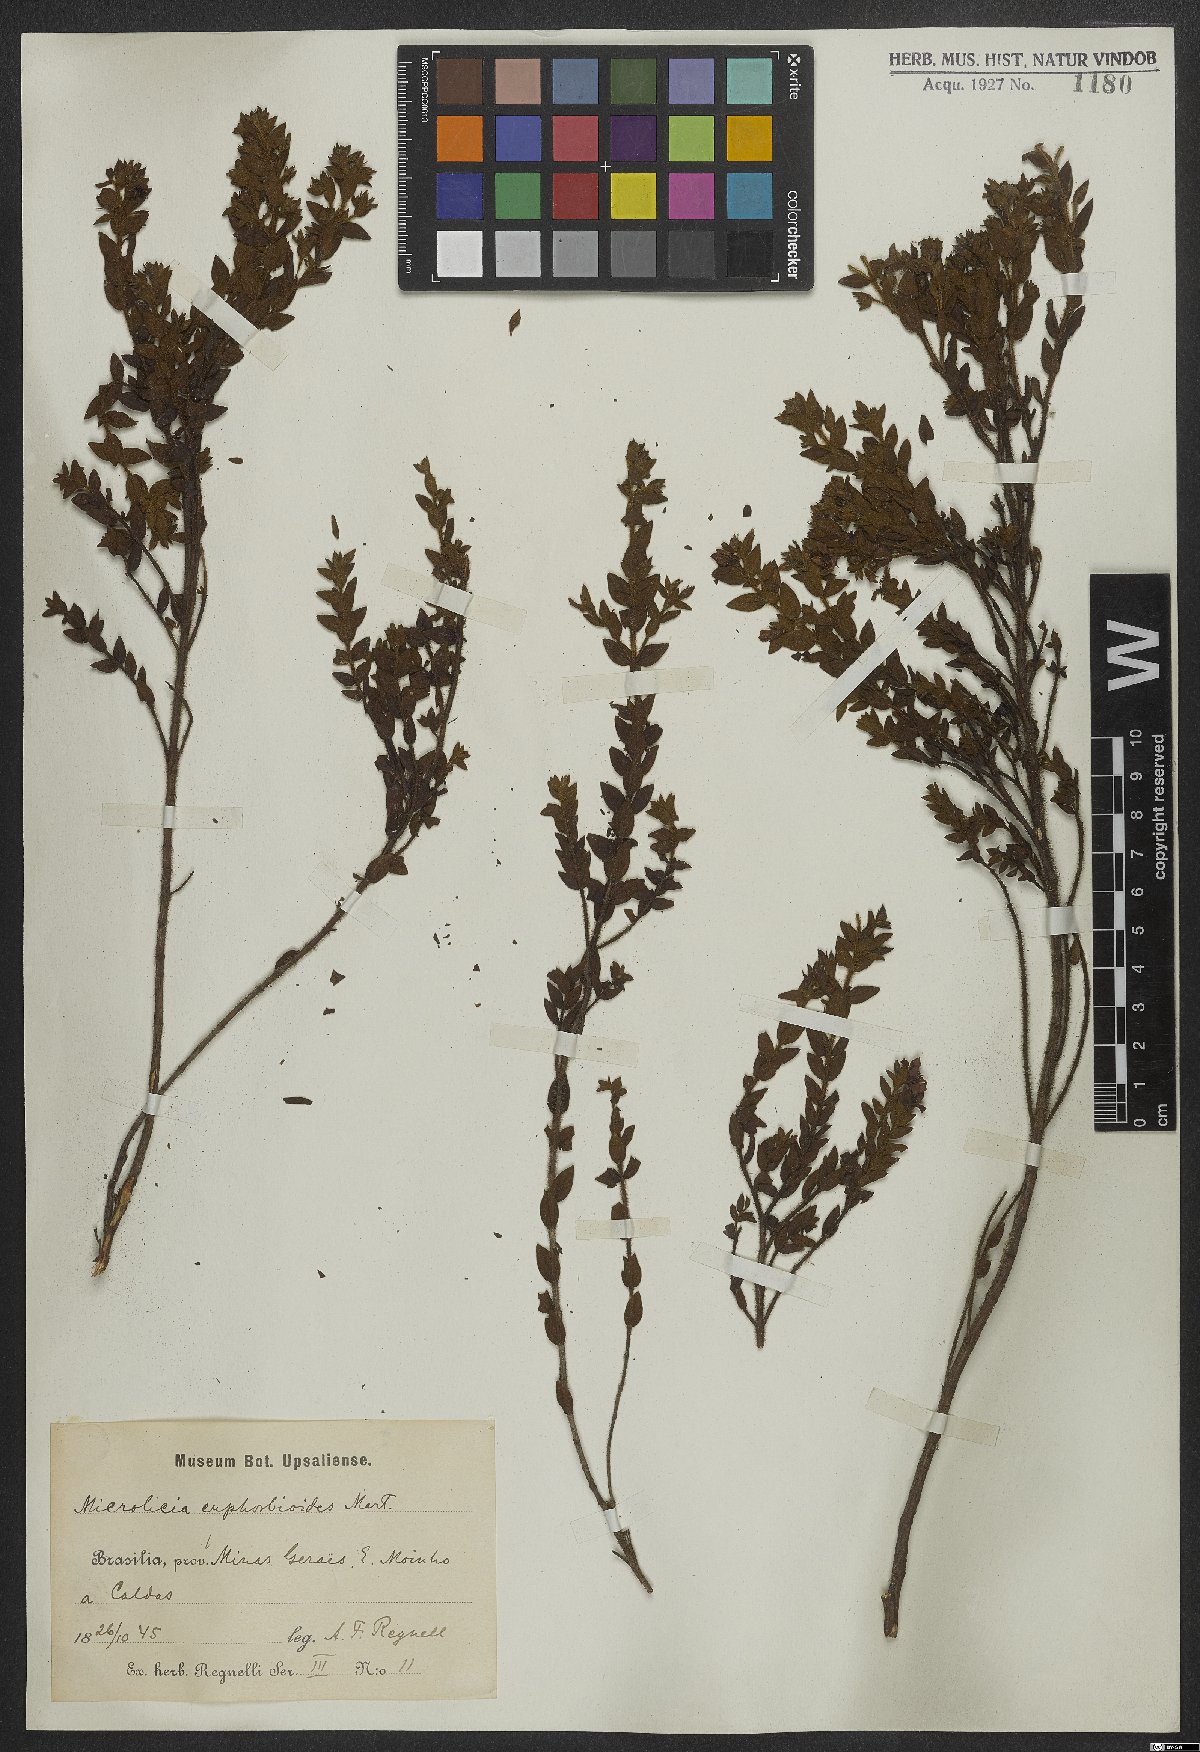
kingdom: Plantae
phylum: Tracheophyta
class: Magnoliopsida
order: Myrtales
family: Melastomataceae
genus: Microlicia
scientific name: Microlicia euphorbioides
